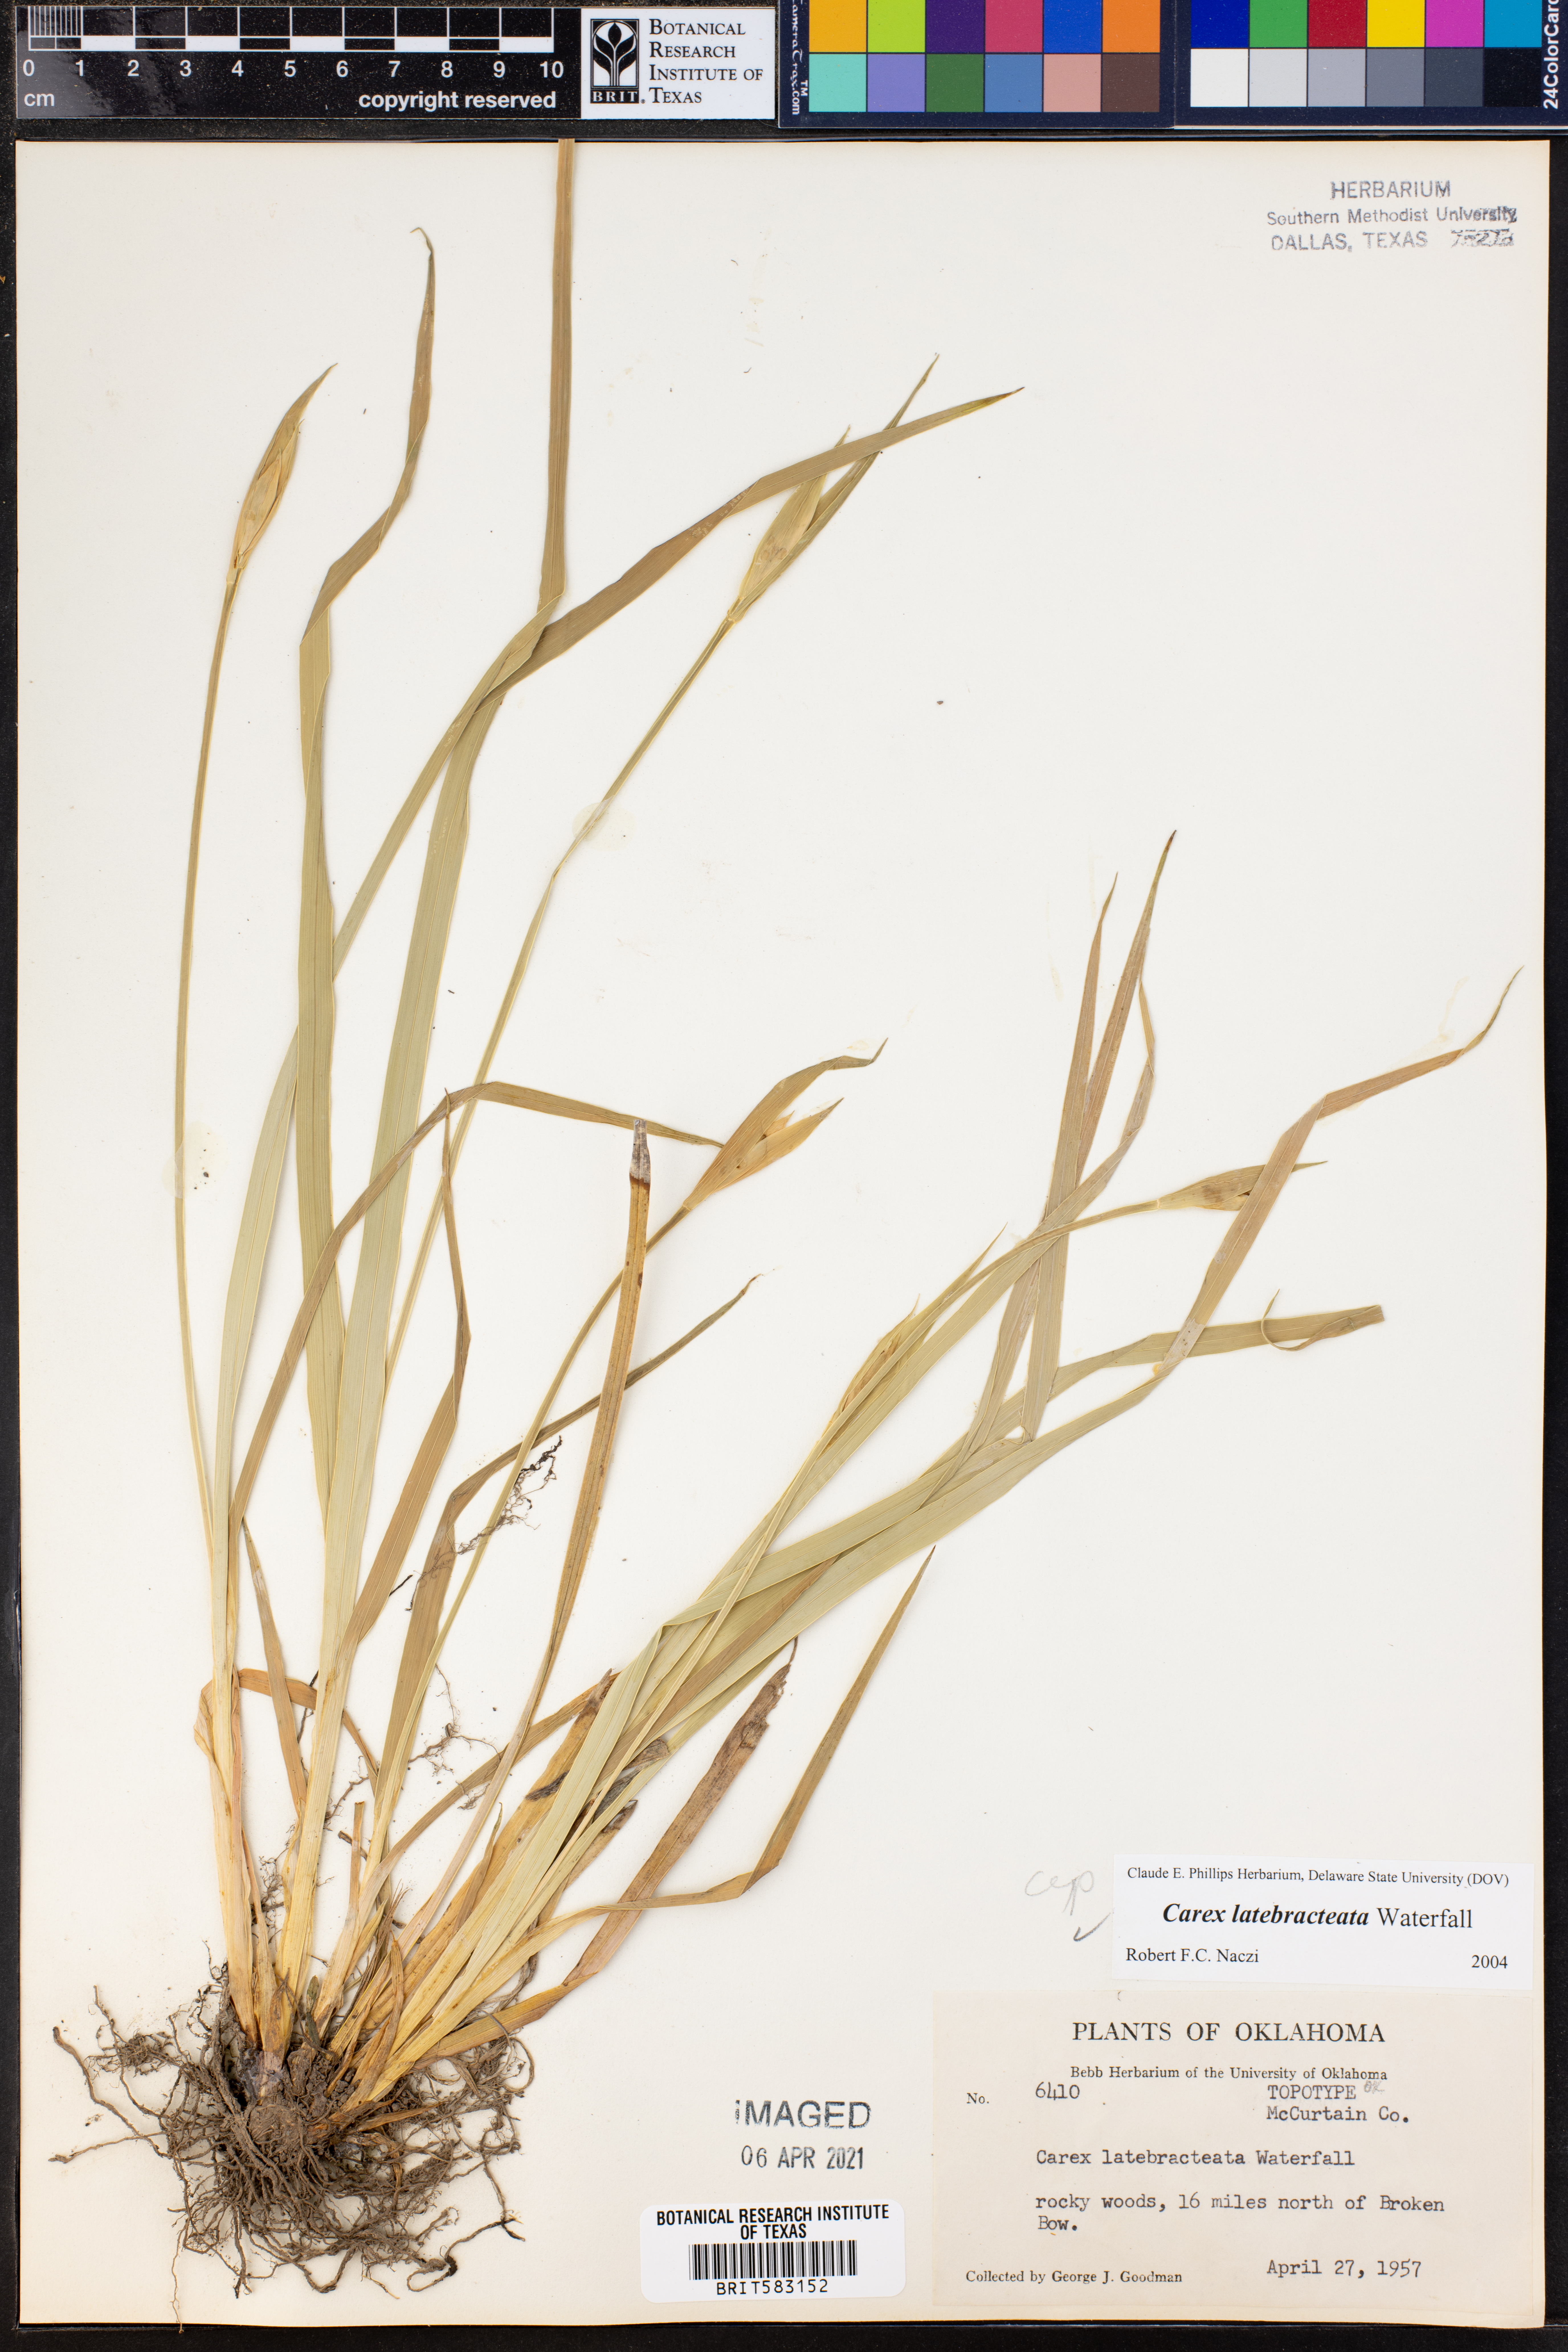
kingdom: Plantae
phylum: Tracheophyta
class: Liliopsida
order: Poales
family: Cyperaceae
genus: Carex
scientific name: Carex latebracteata
